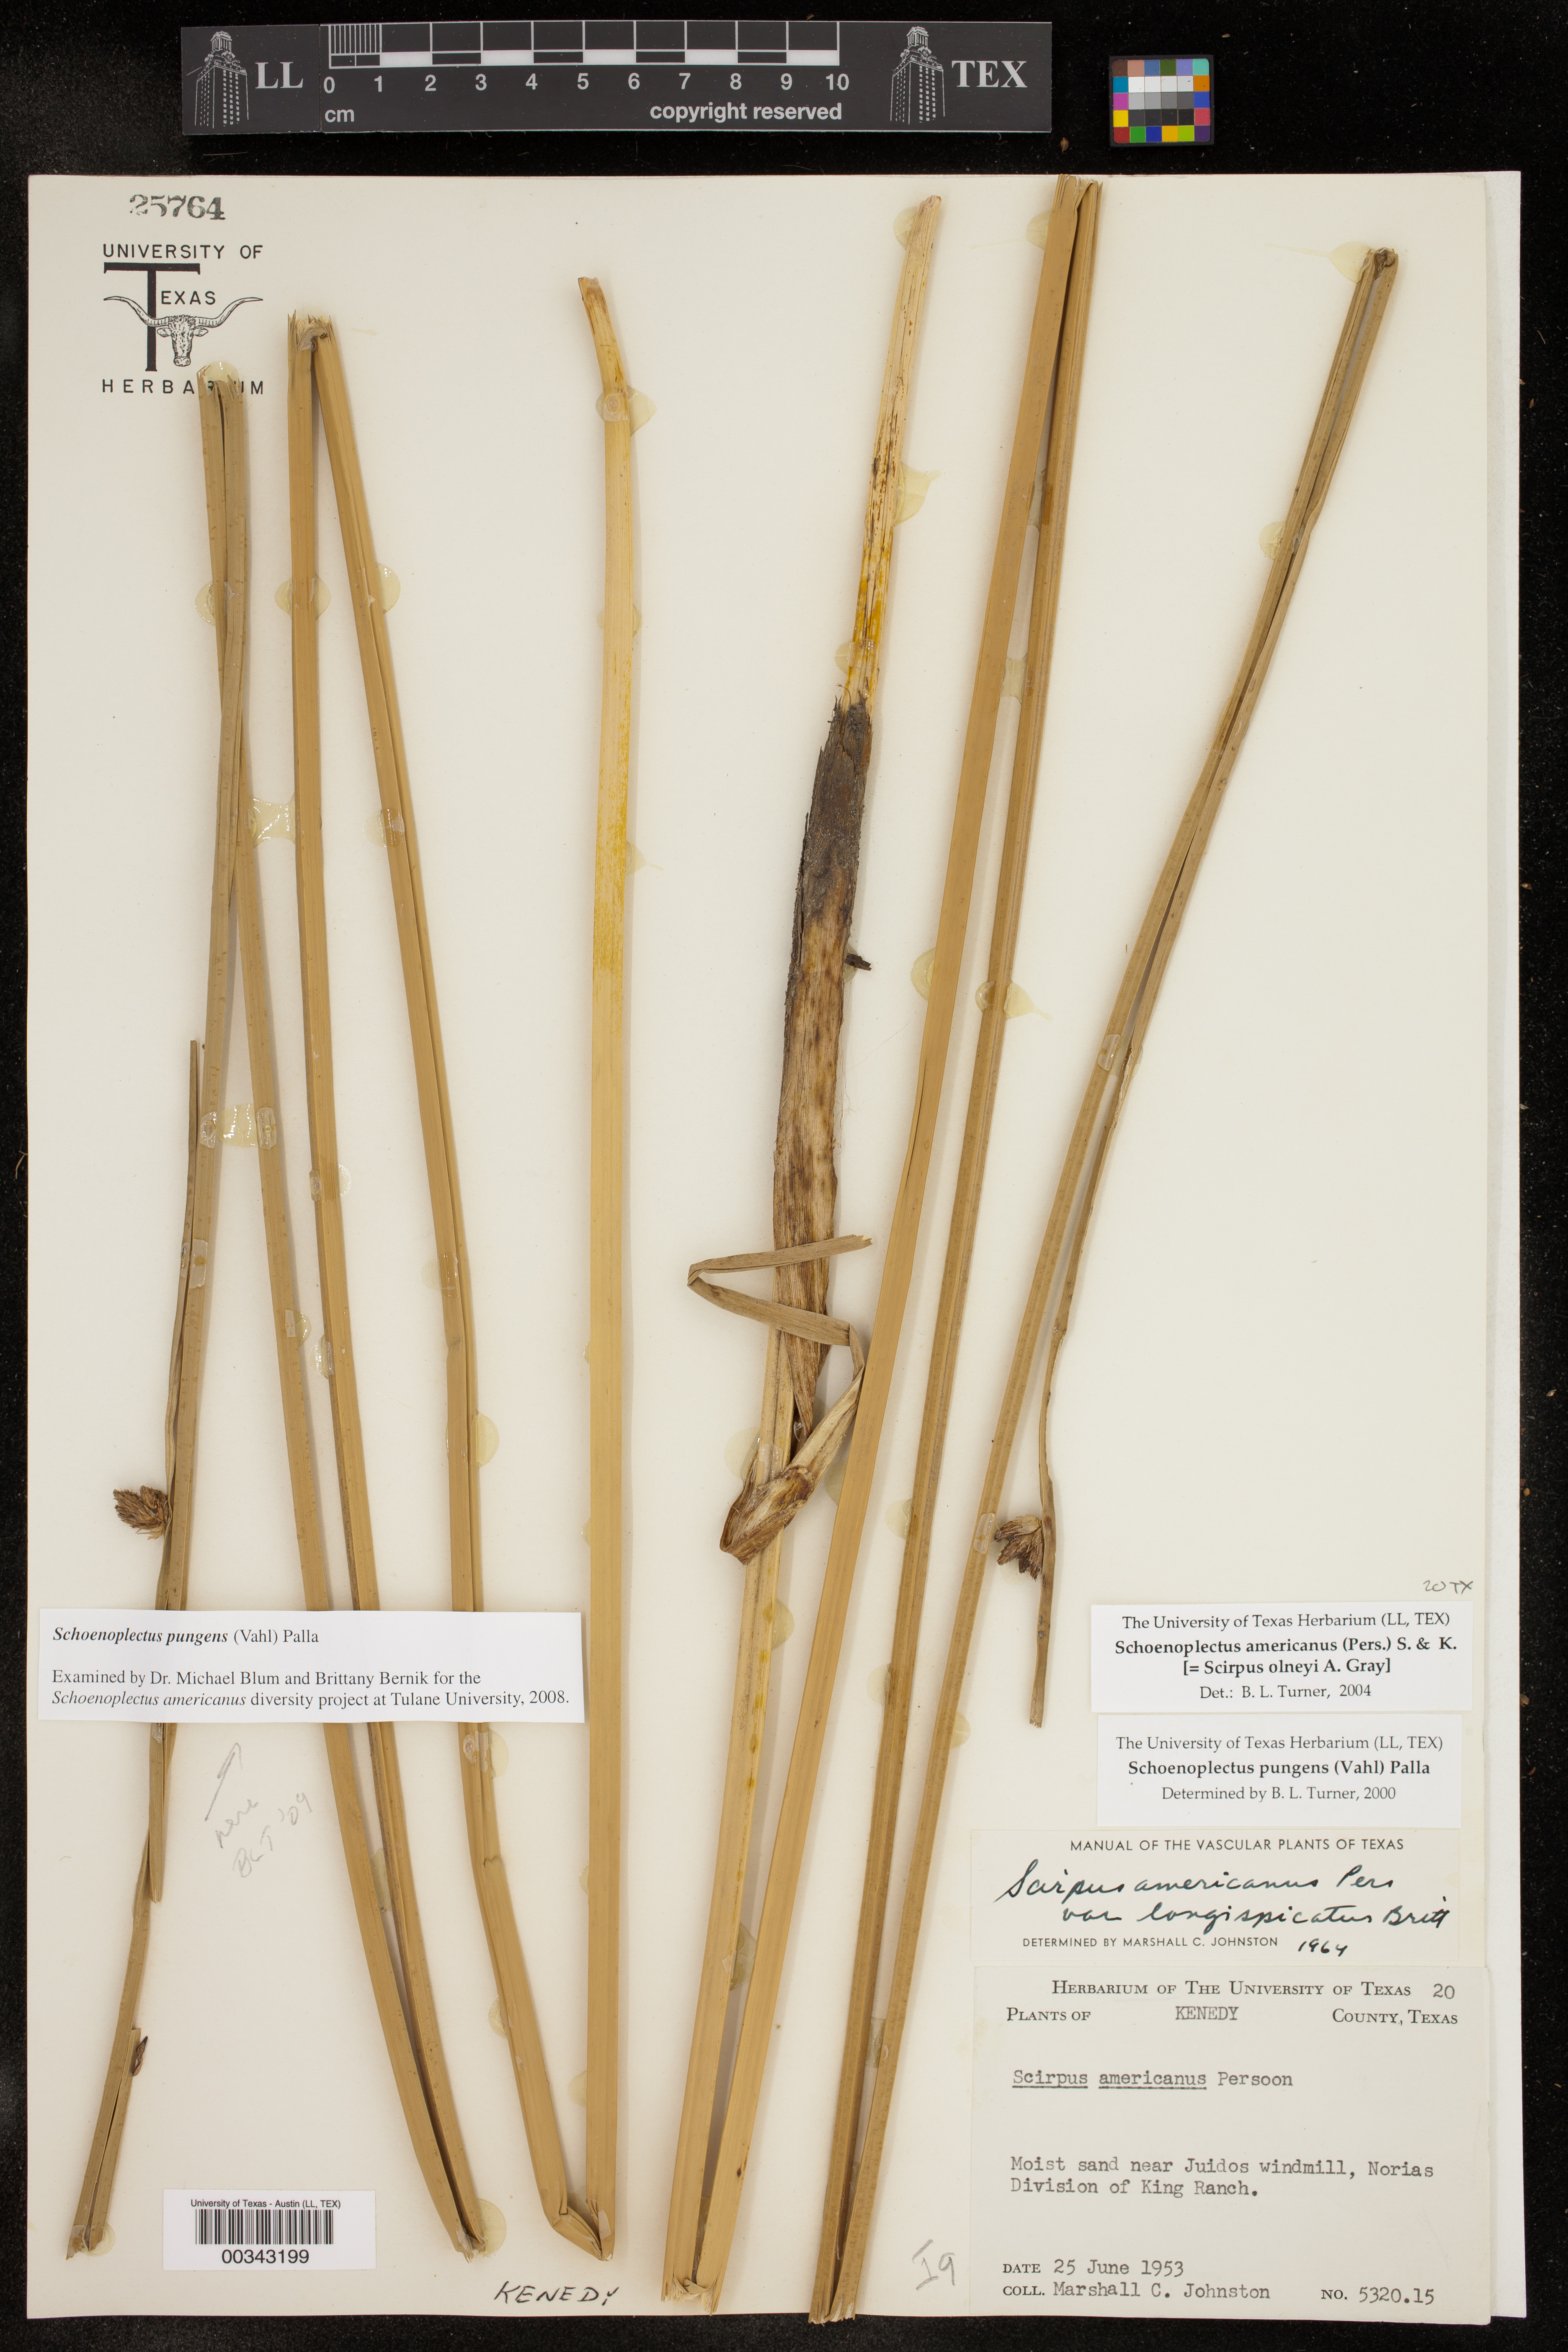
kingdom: Plantae
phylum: Tracheophyta
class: Liliopsida
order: Poales
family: Cyperaceae
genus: Schoenoplectus
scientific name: Schoenoplectus pungens
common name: Sharp club-rush
